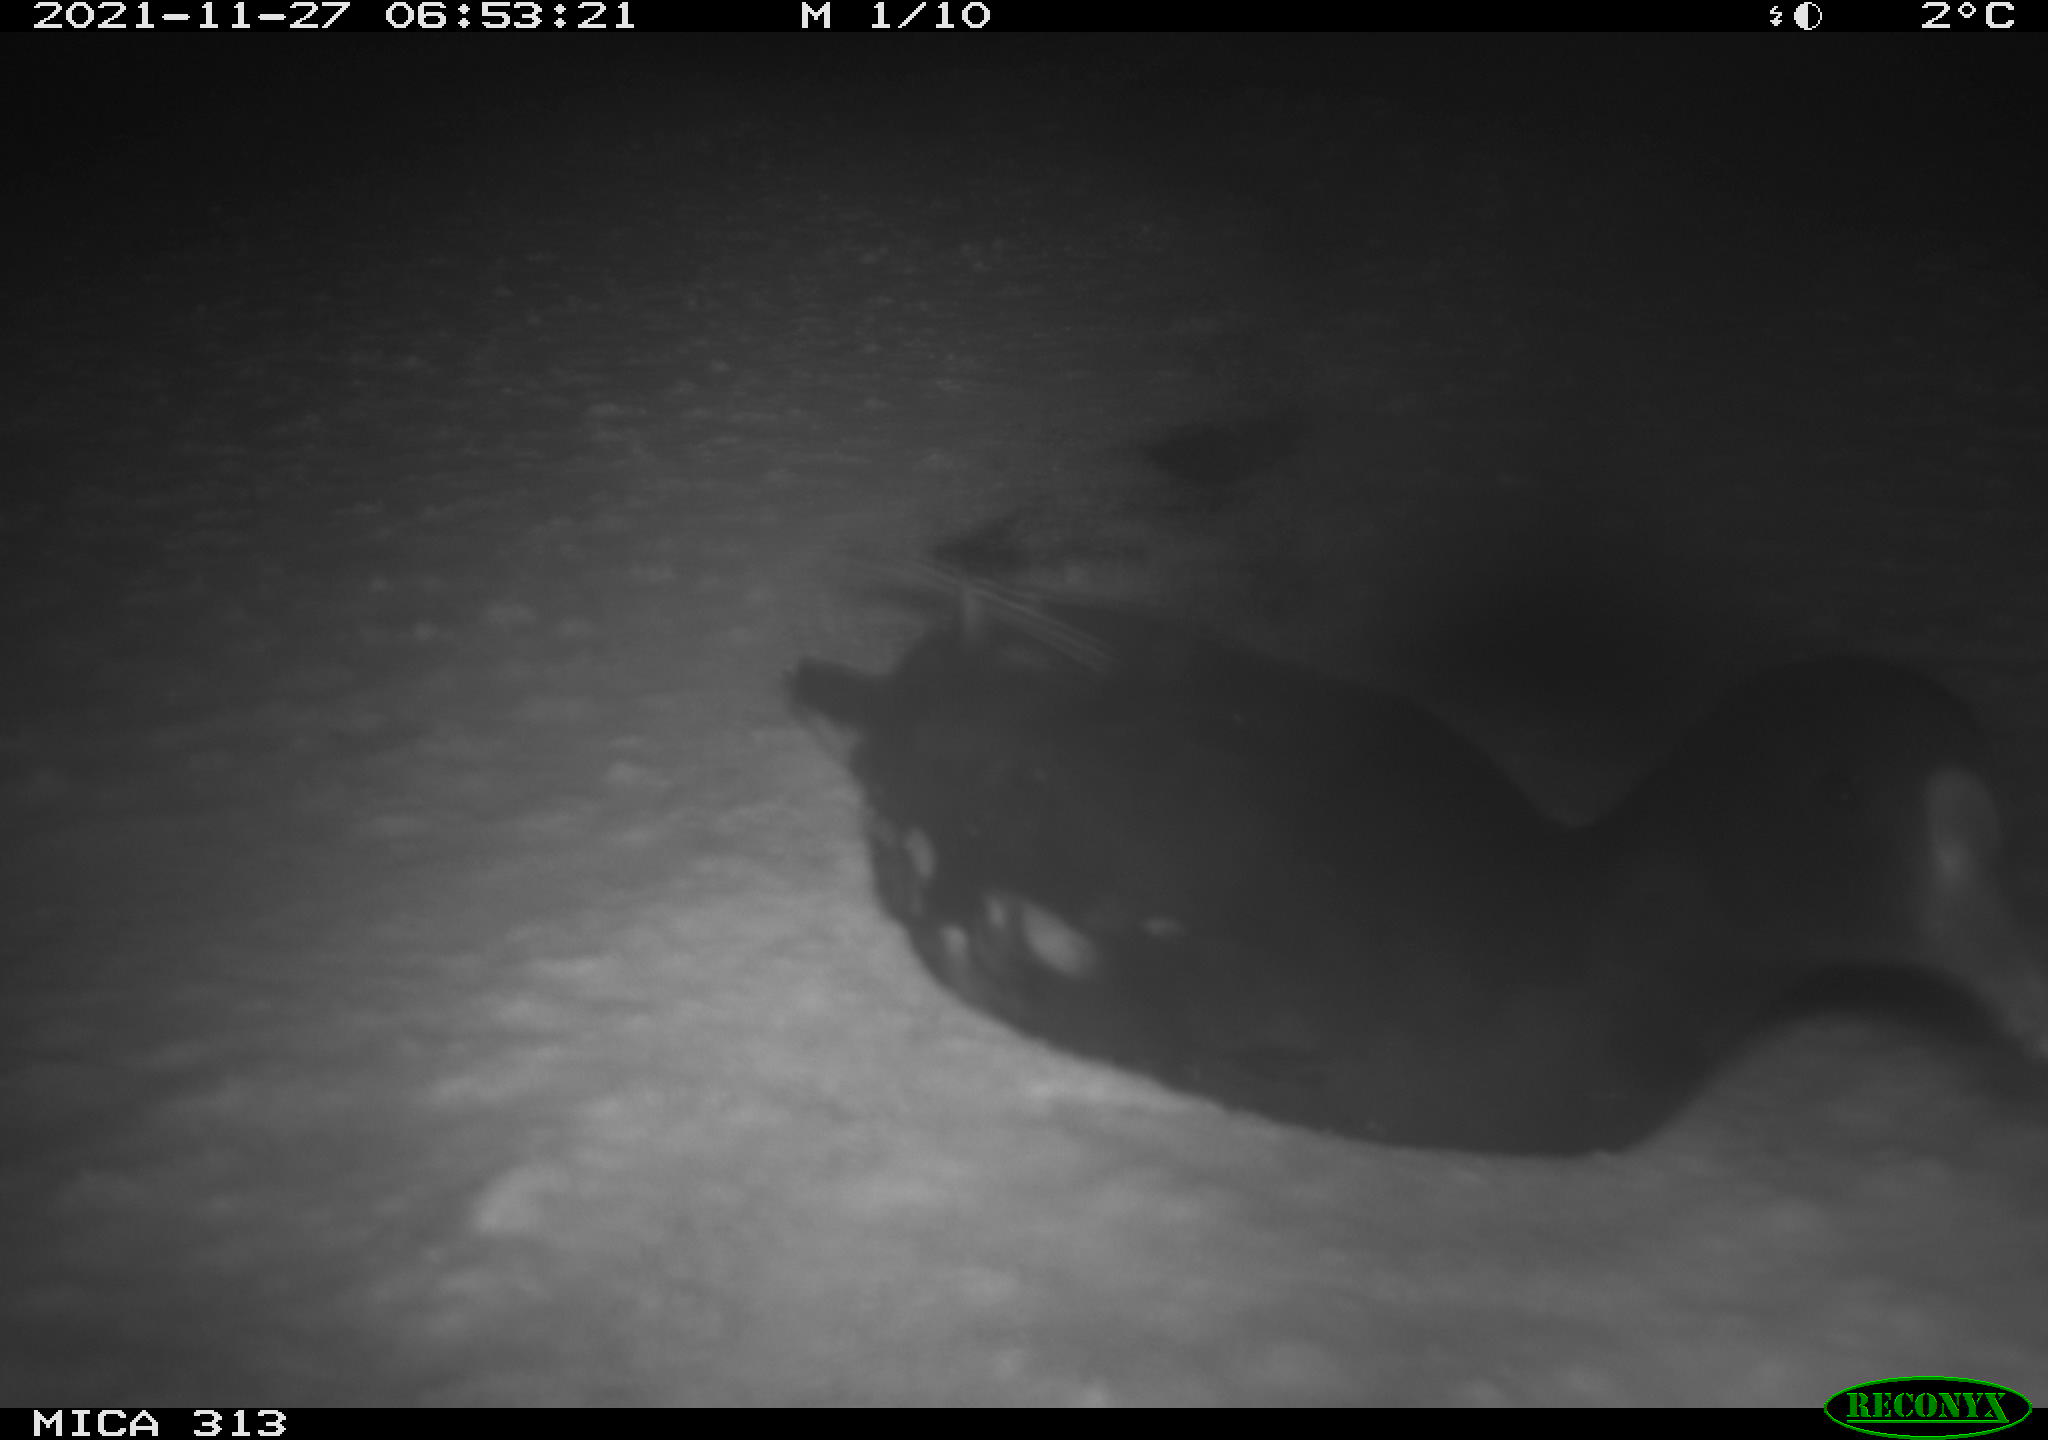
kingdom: Animalia
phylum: Chordata
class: Aves
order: Gruiformes
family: Rallidae
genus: Gallinula
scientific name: Gallinula chloropus
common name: Common moorhen
